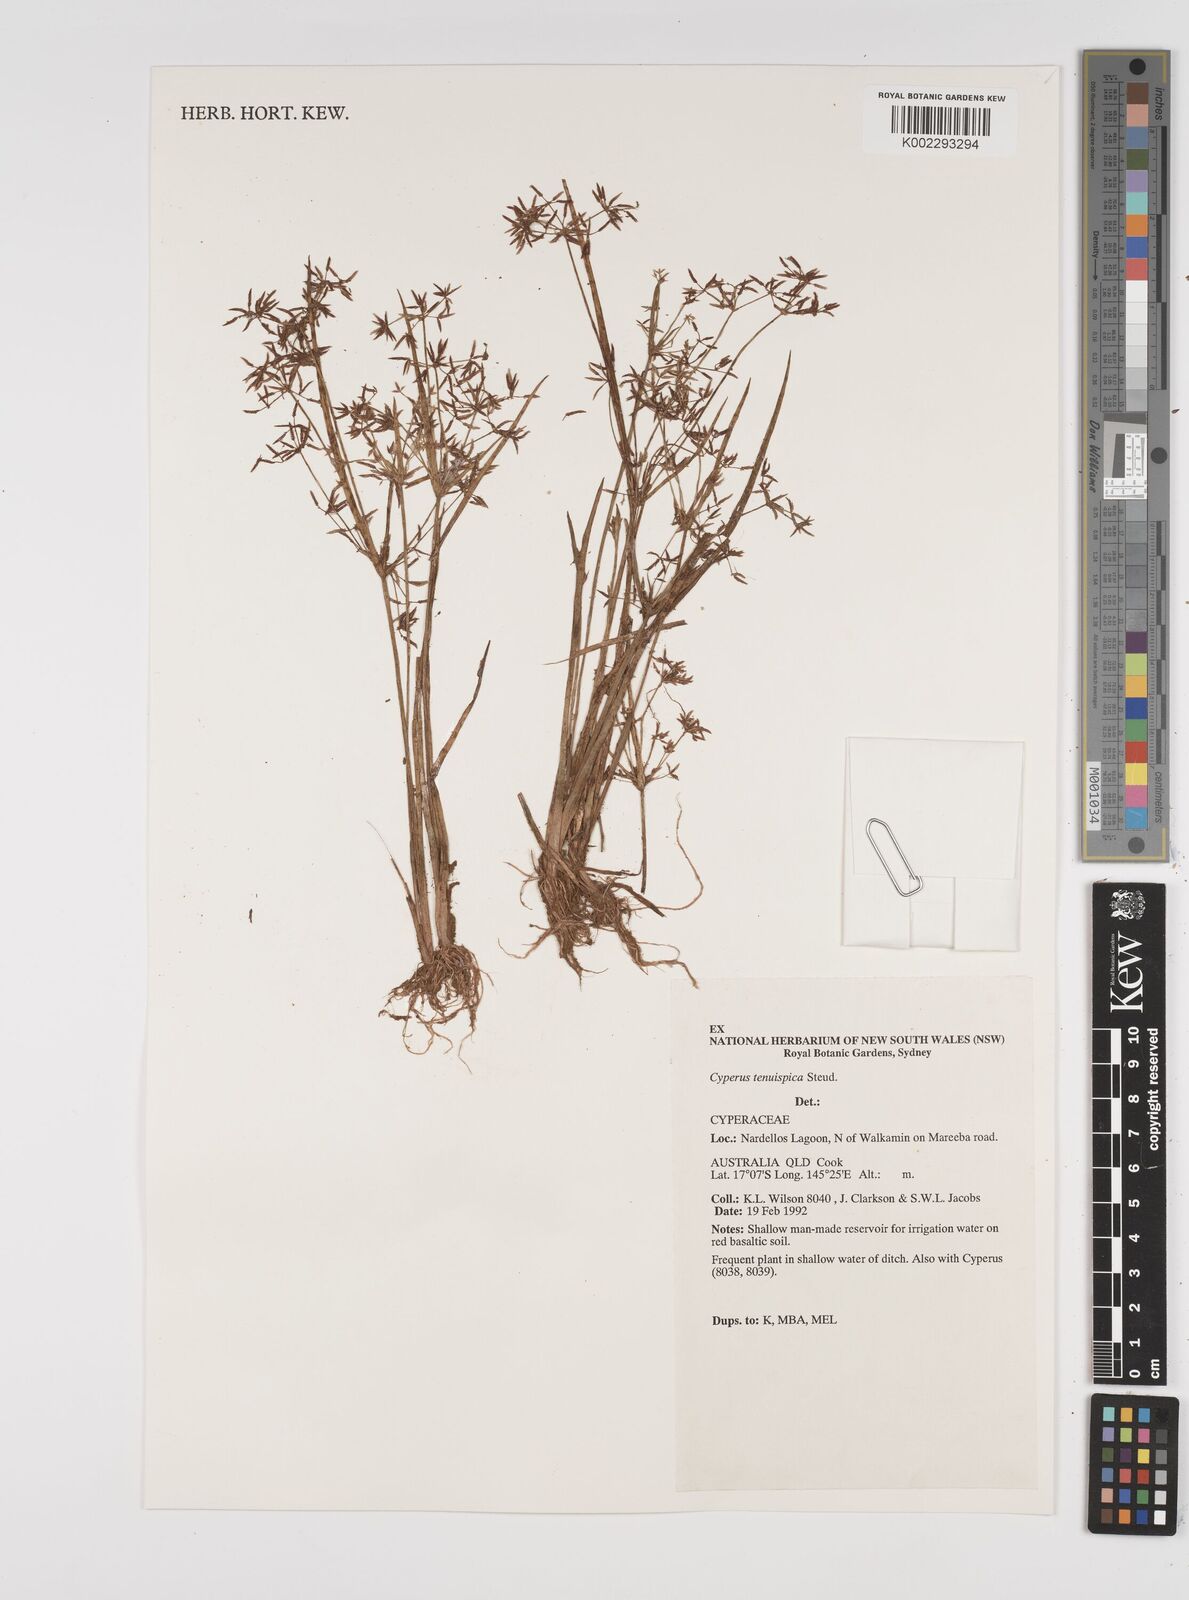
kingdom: Plantae
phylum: Tracheophyta
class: Liliopsida
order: Poales
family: Cyperaceae
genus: Cyperus
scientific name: Cyperus tenuispica
